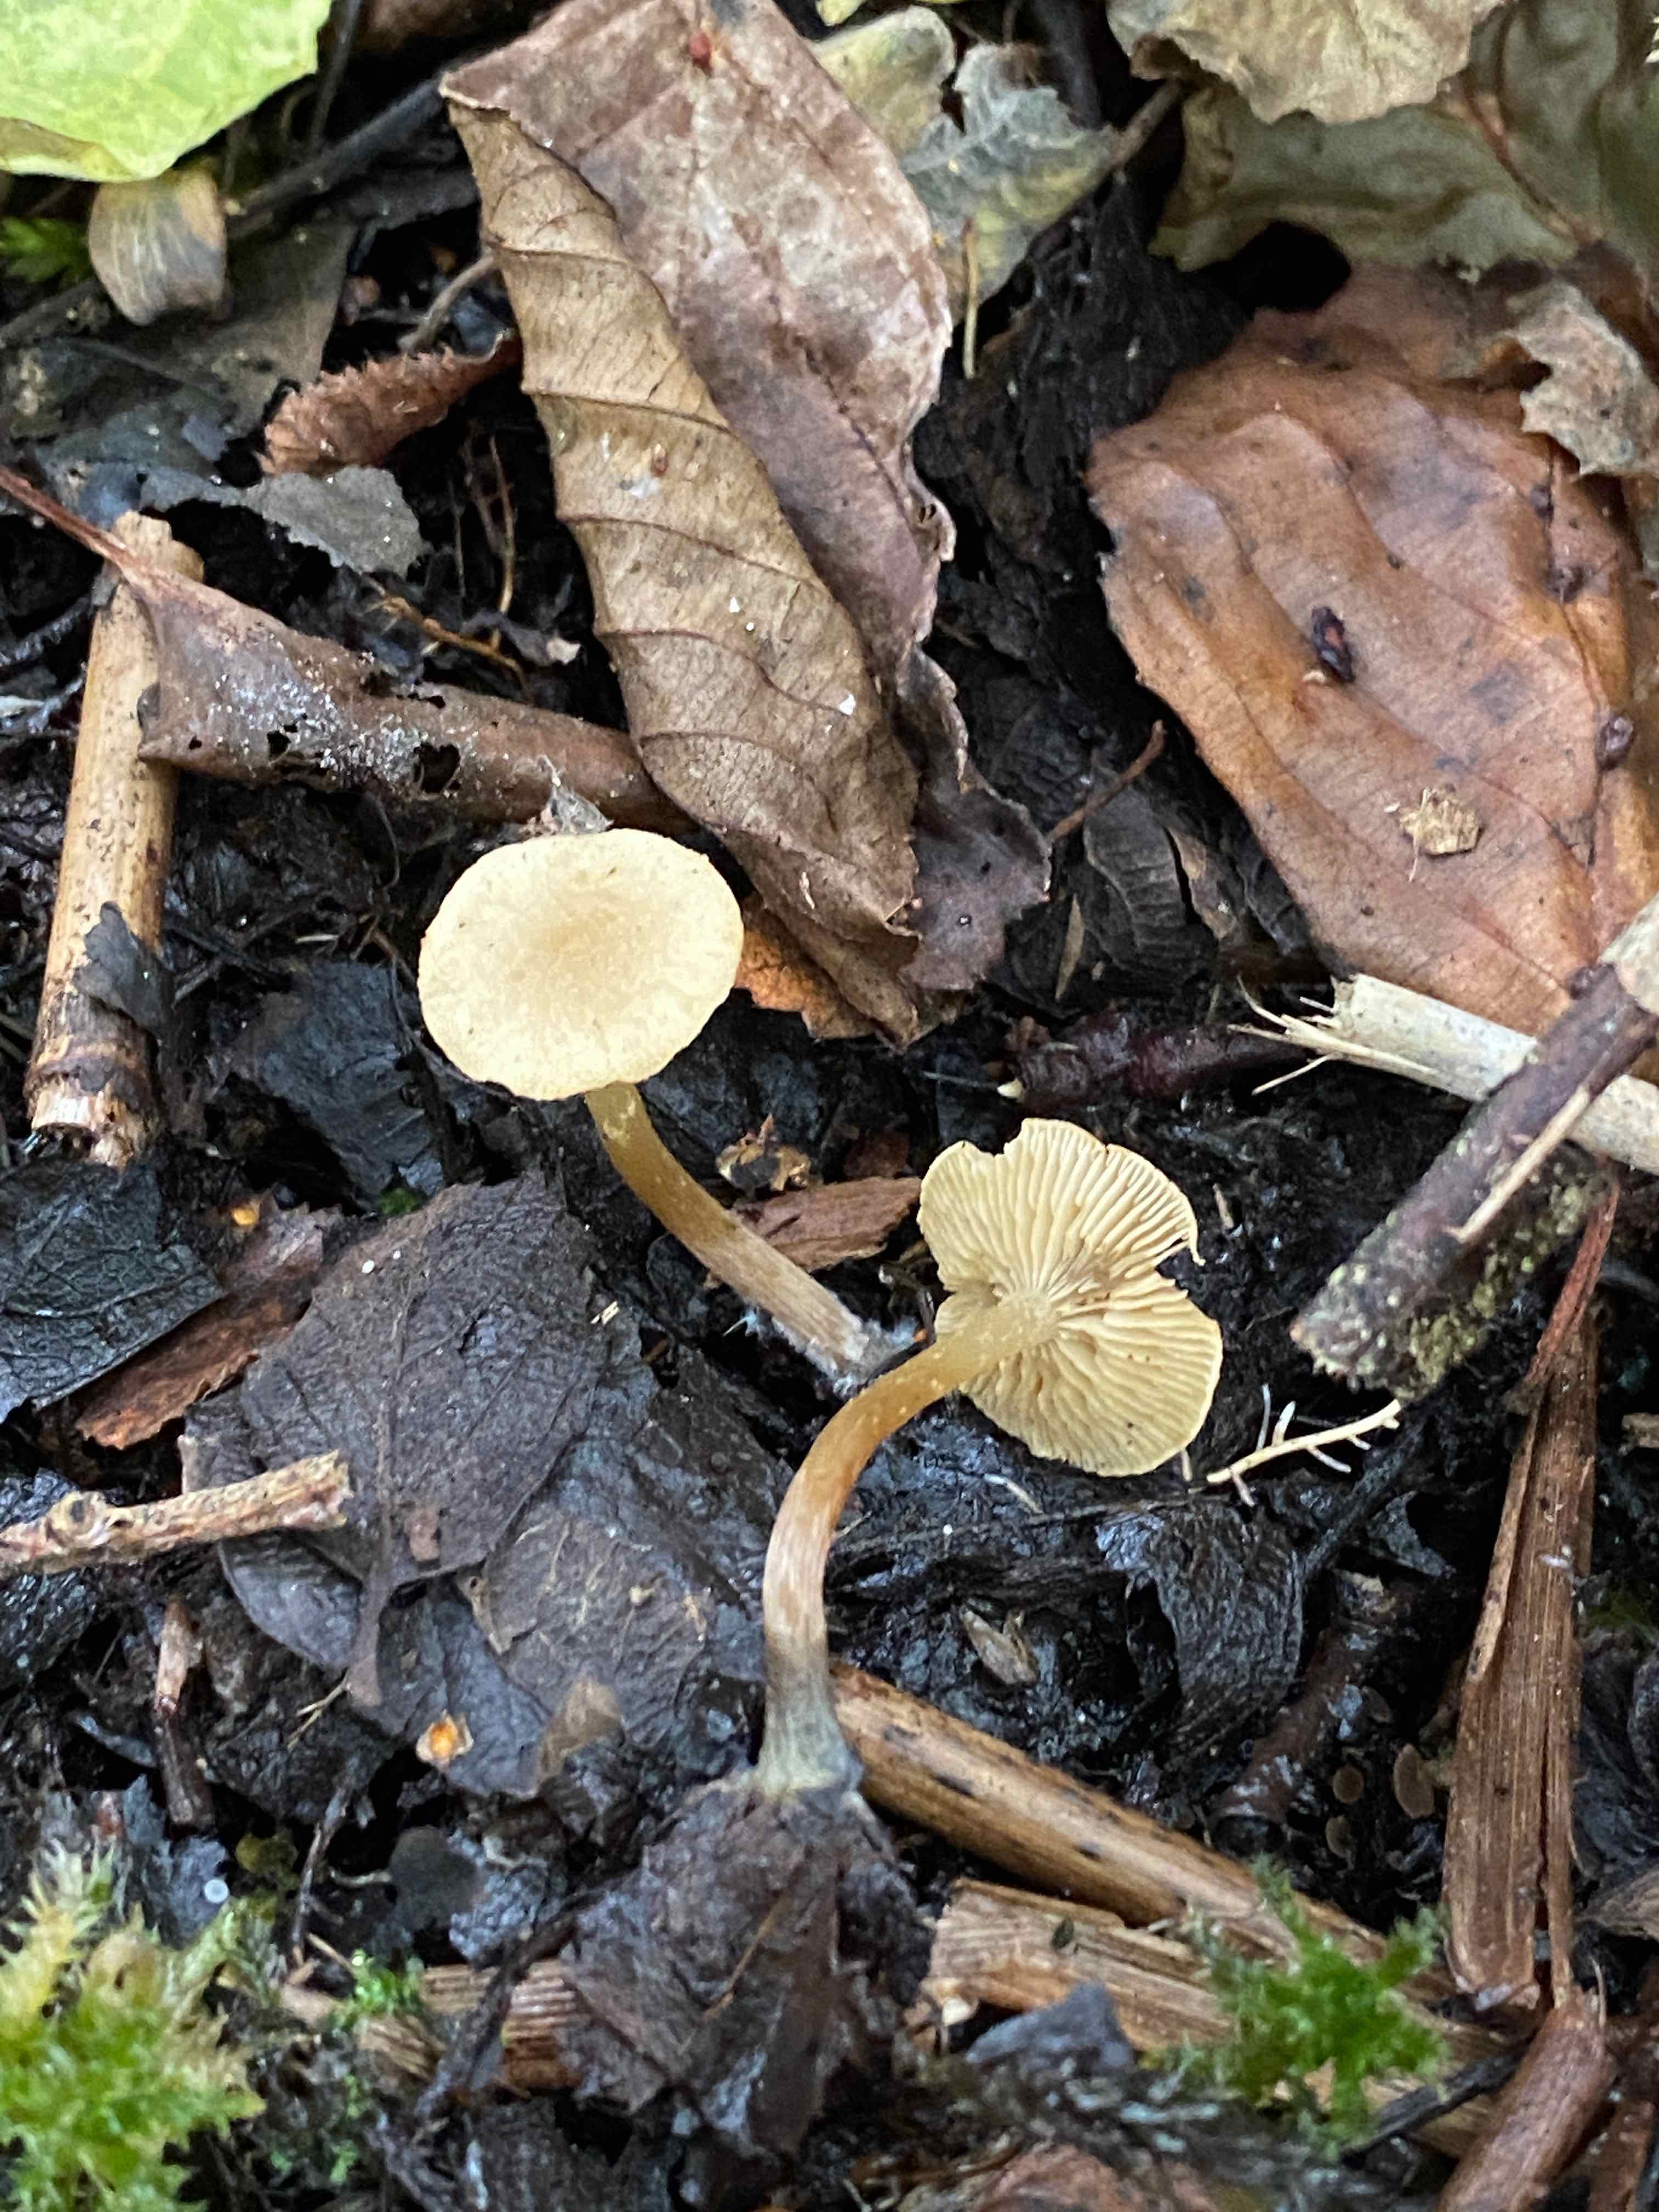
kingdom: Fungi
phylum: Basidiomycota
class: Agaricomycetes
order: Agaricales
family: Hymenogastraceae
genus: Naucoria
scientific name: Naucoria escharioides
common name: lys elle-knaphat
